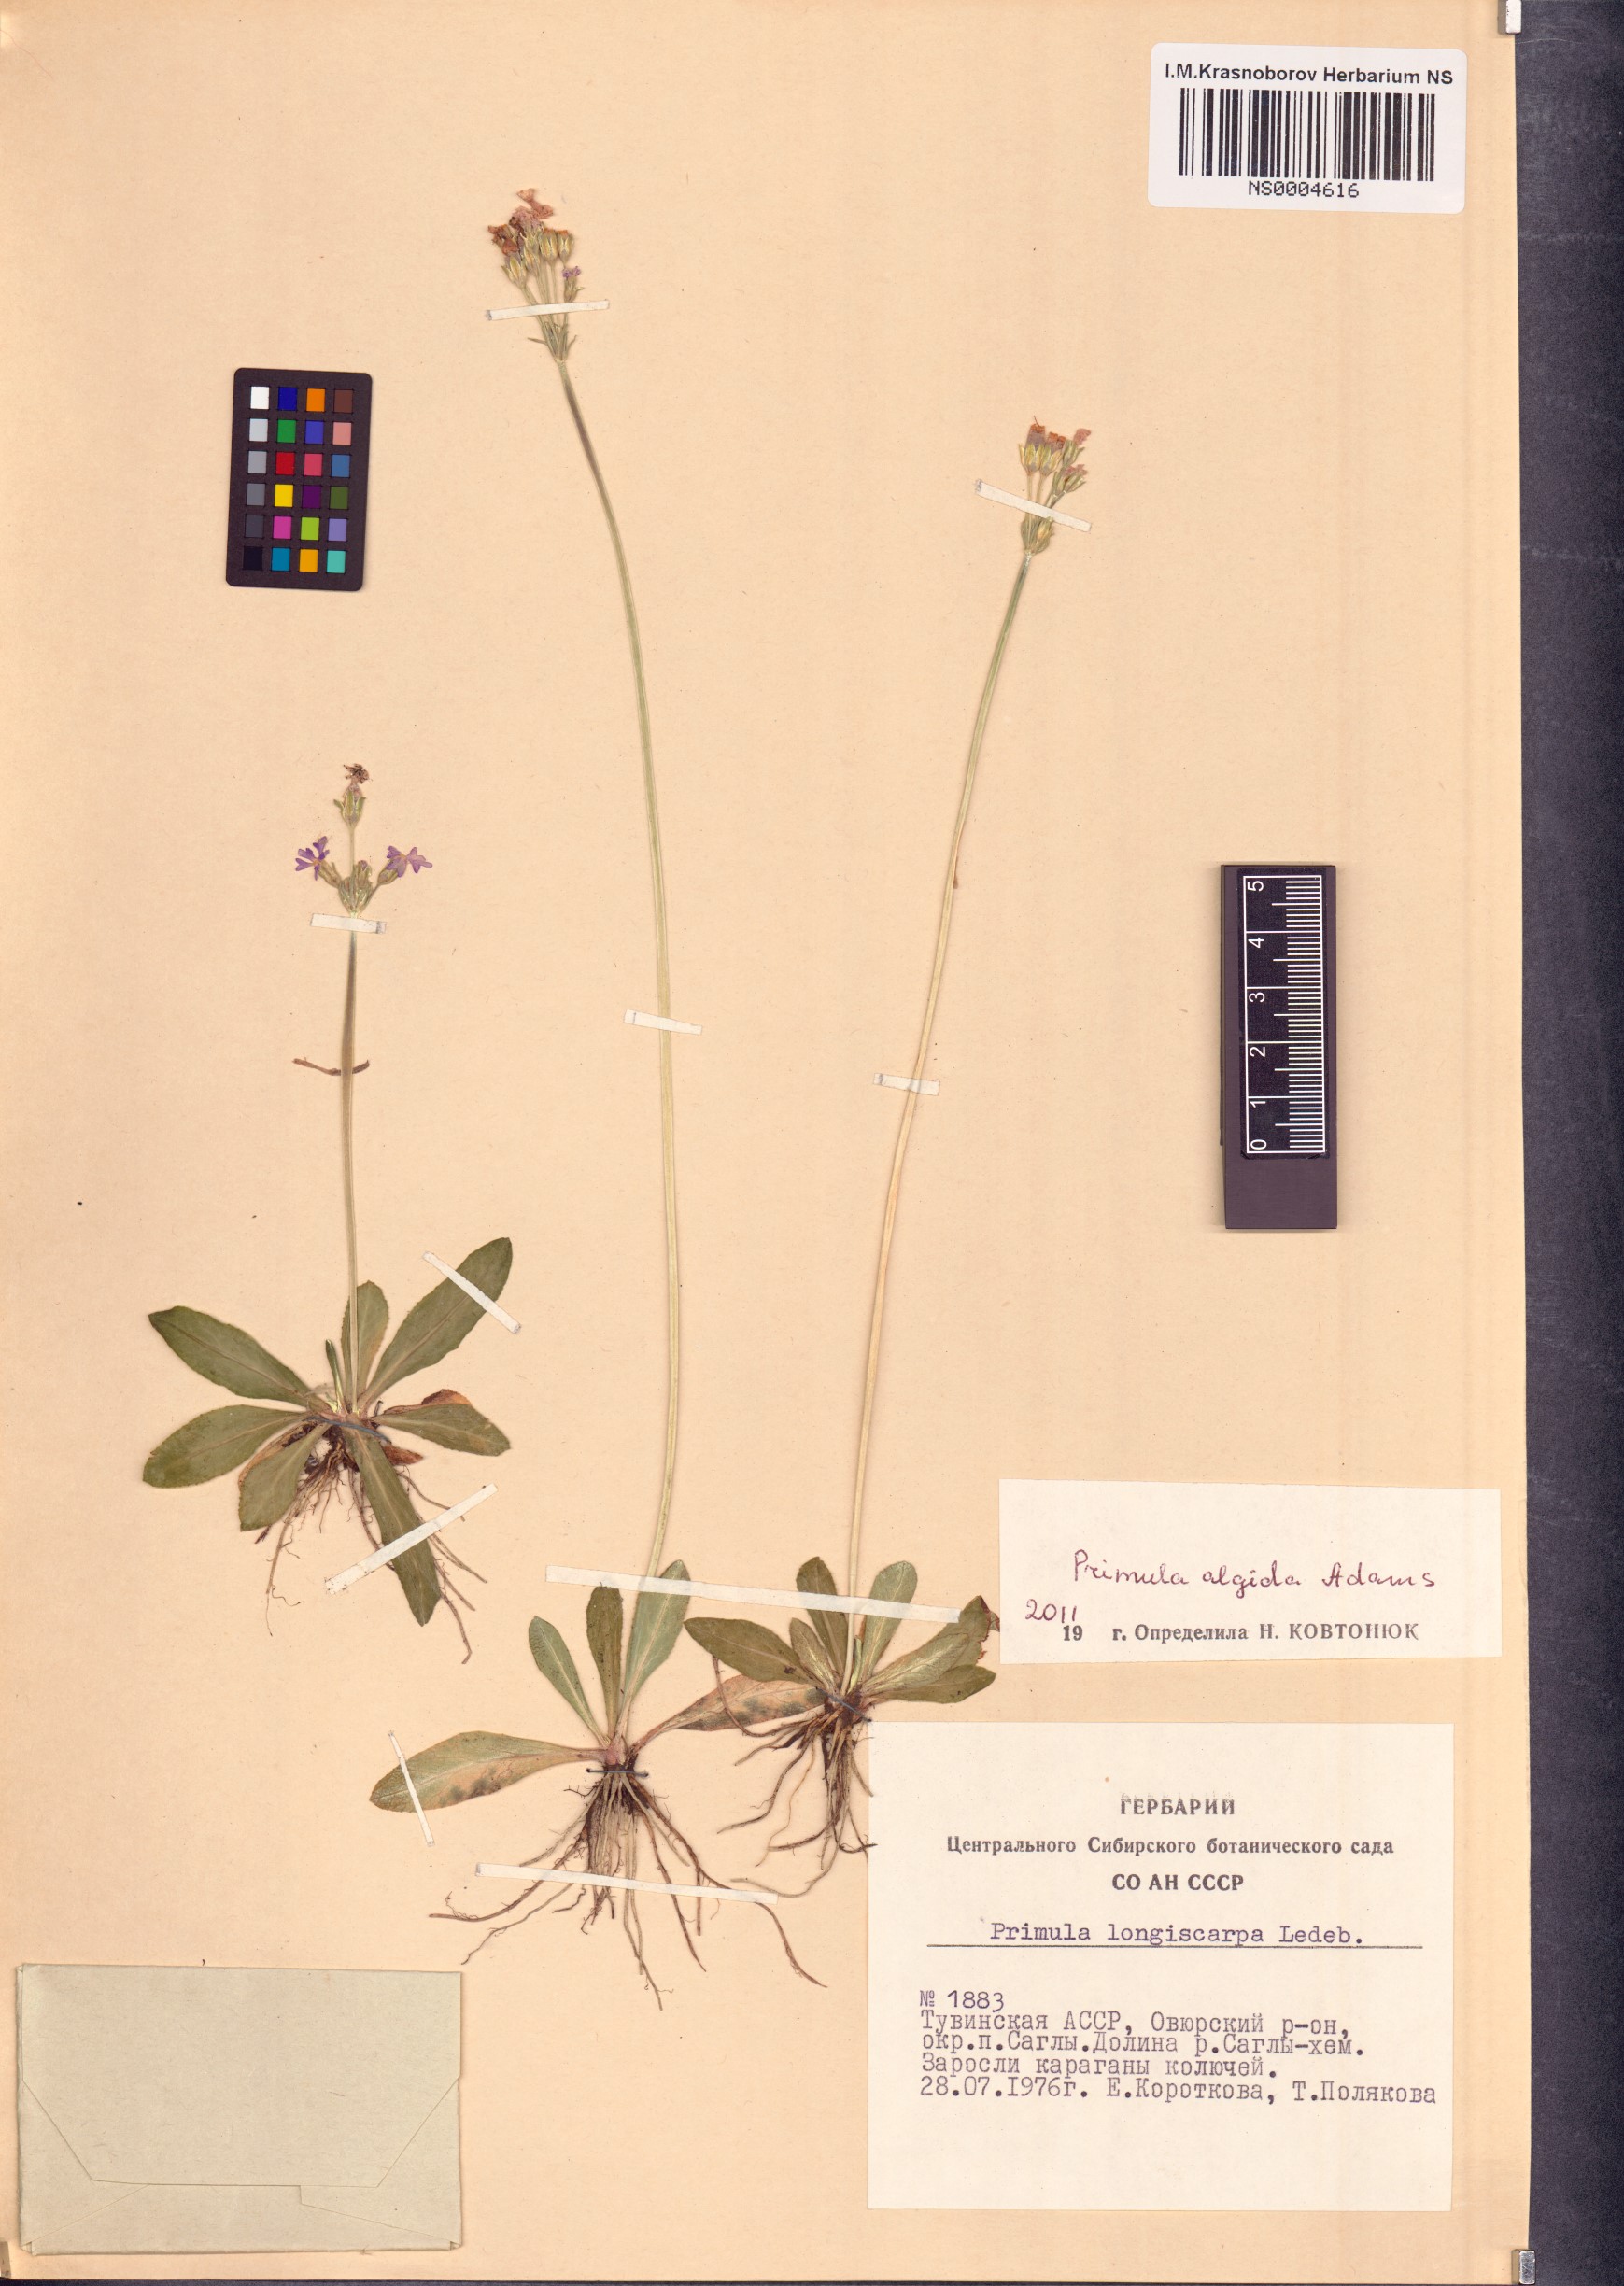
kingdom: Plantae
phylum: Tracheophyta
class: Magnoliopsida
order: Ericales
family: Primulaceae
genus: Primula
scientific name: Primula algida
